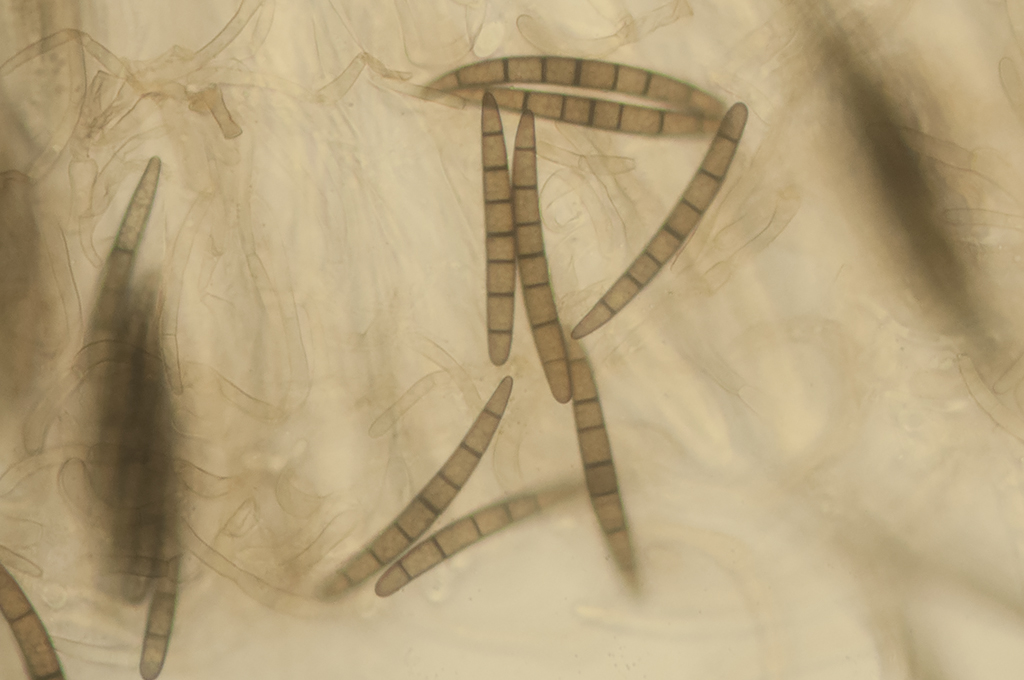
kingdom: Fungi
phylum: Ascomycota
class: Geoglossomycetes
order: Geoglossales
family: Geoglossaceae
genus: Geoglossum
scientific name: Geoglossum umbratile
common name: slank jordtunge
